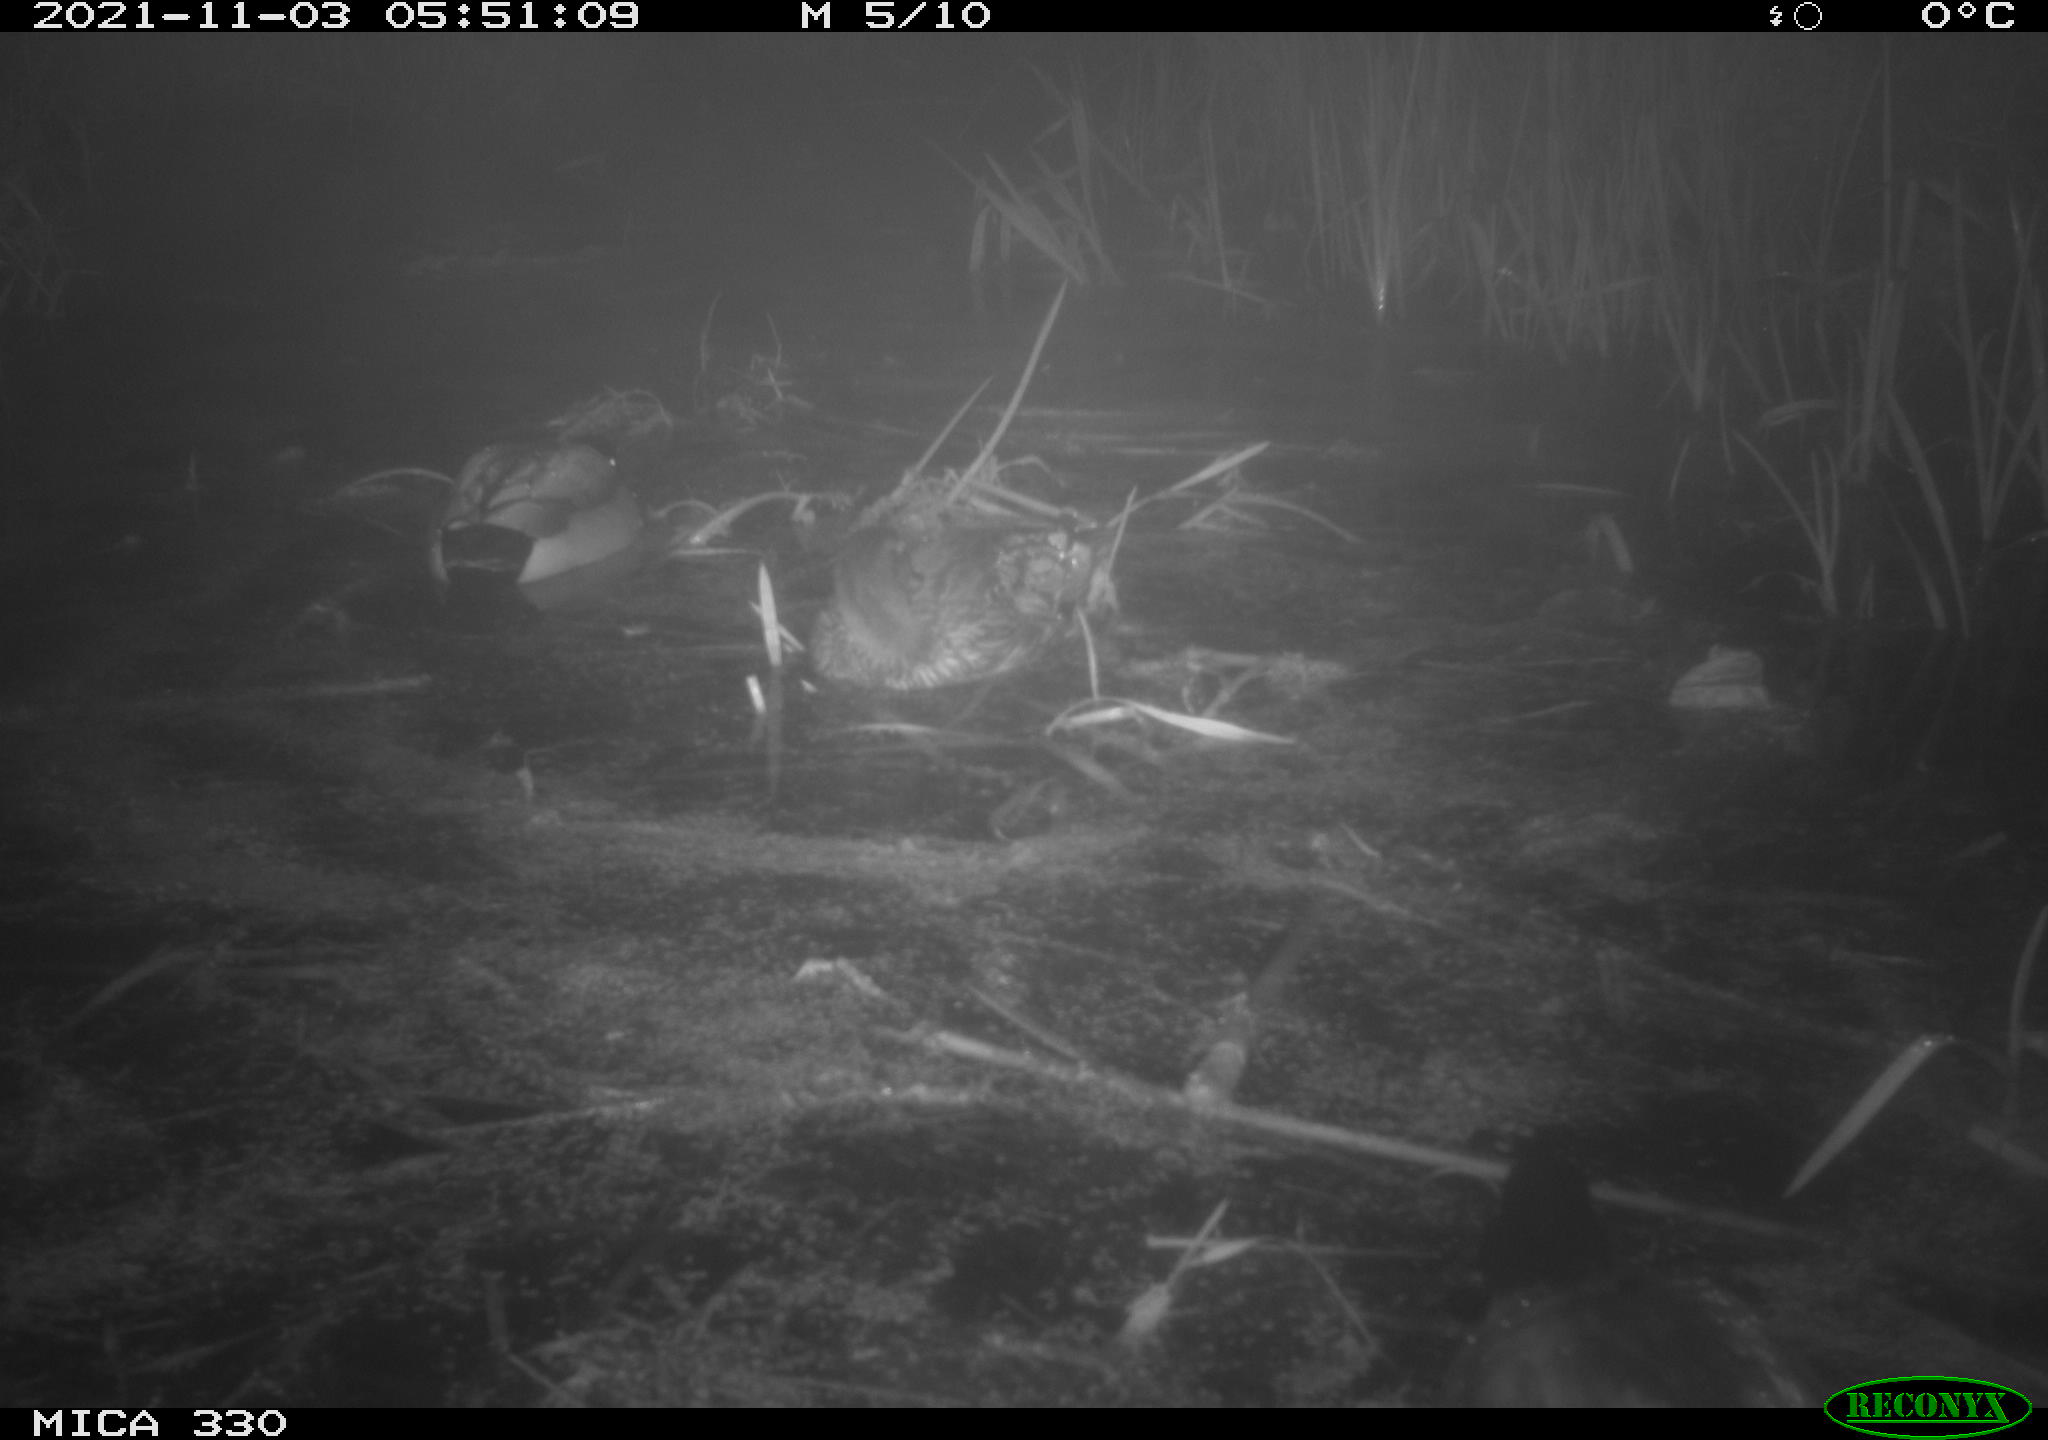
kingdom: Animalia
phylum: Chordata
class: Aves
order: Anseriformes
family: Anatidae
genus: Anas
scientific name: Anas platyrhynchos
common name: Mallard
